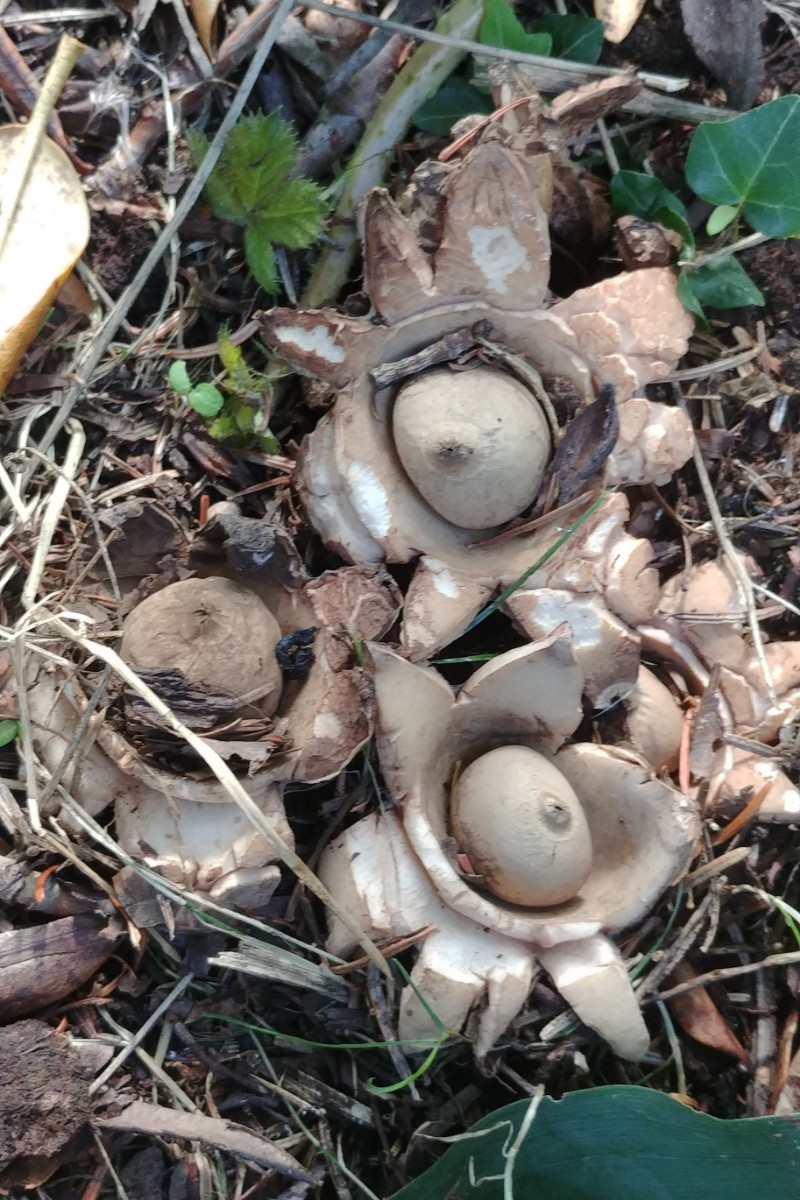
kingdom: Fungi
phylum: Basidiomycota
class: Agaricomycetes
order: Geastrales
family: Geastraceae
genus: Geastrum
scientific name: Geastrum michelianum
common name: kødet stjernebold
